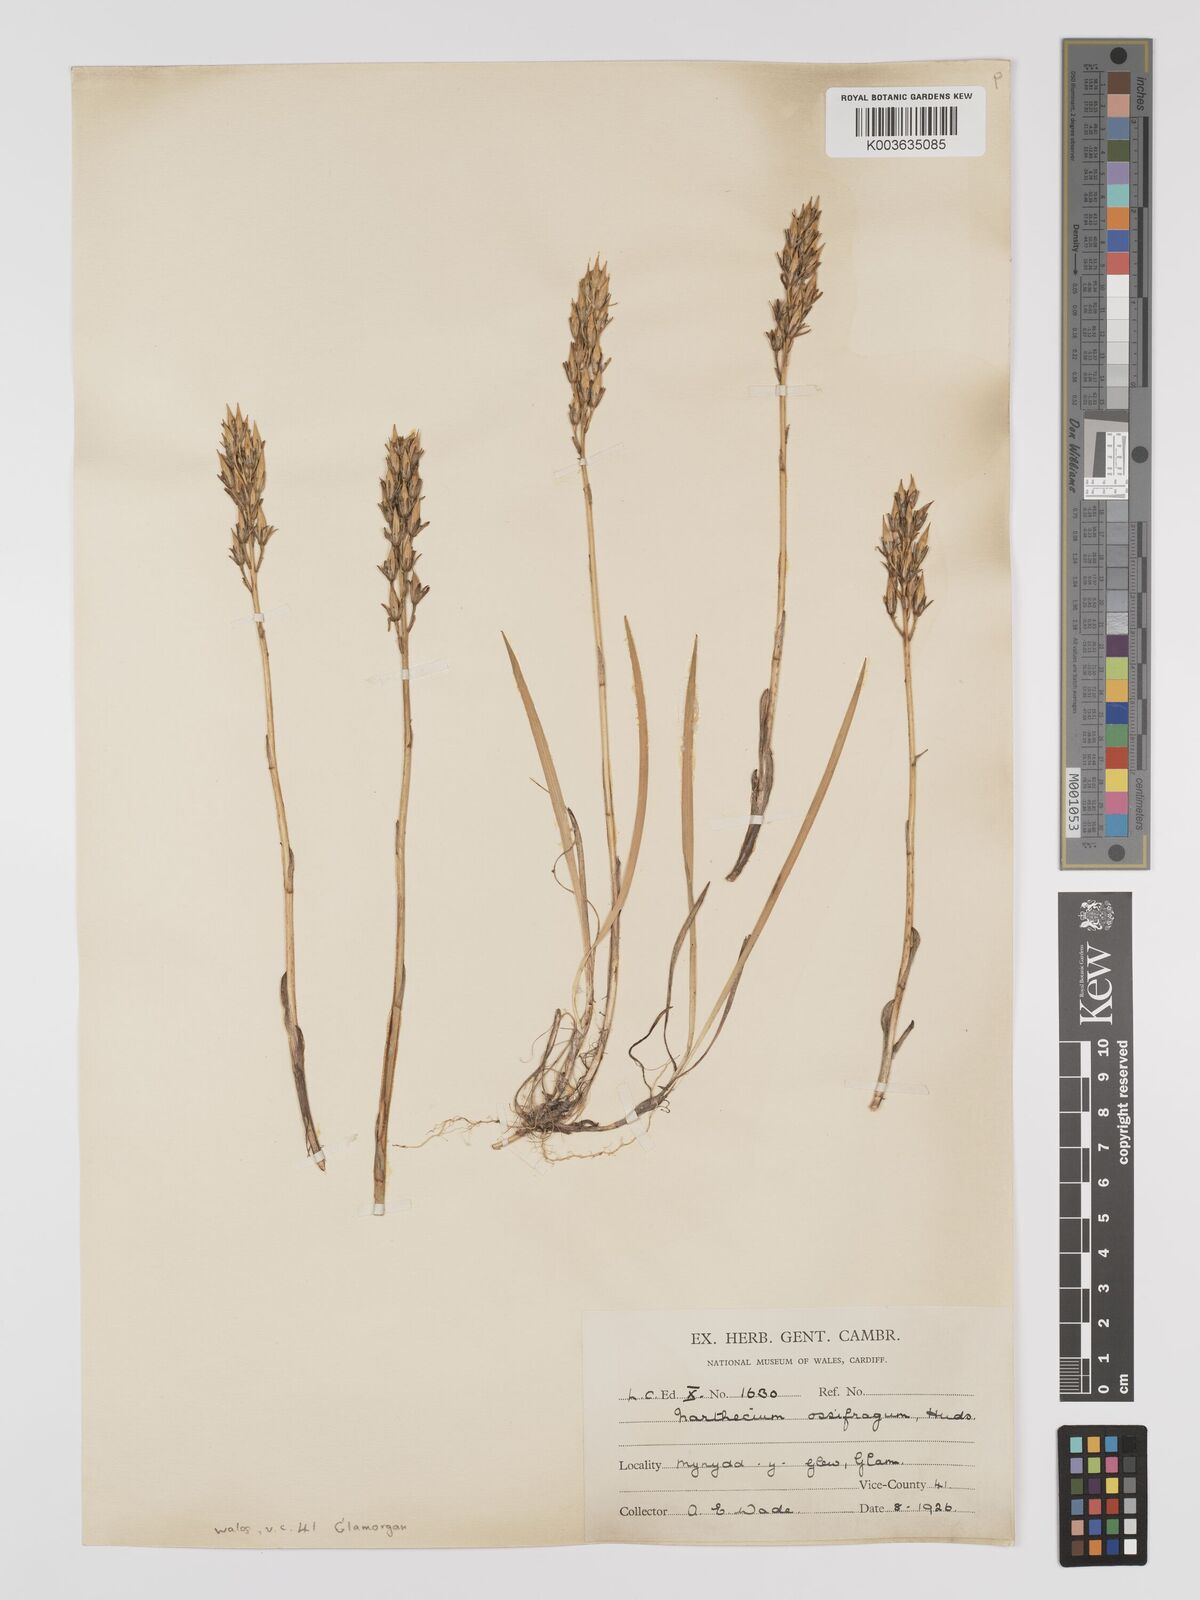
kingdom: Plantae
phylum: Tracheophyta
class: Liliopsida
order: Dioscoreales
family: Nartheciaceae
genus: Narthecium
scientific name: Narthecium
